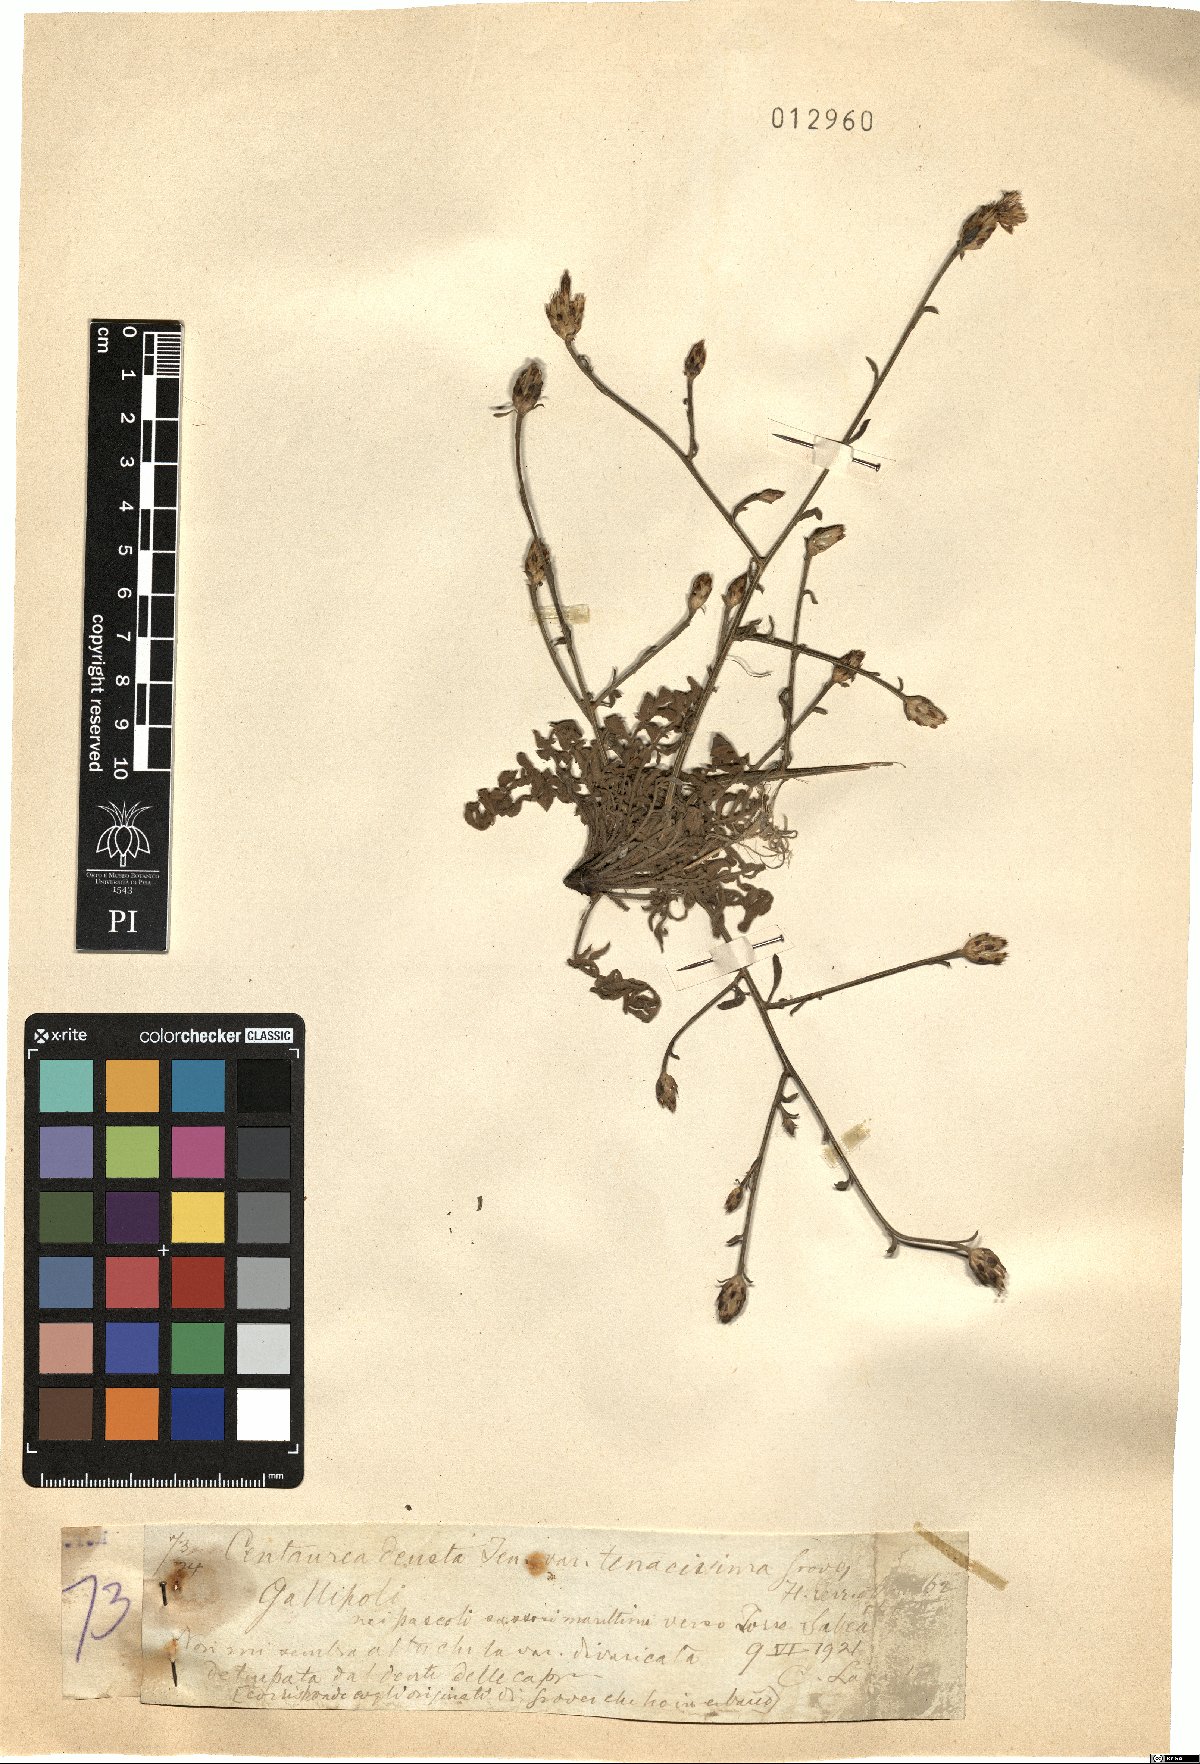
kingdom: Plantae
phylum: Tracheophyta
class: Magnoliopsida
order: Asterales
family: Asteraceae
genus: Centaurea
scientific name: Centaurea tenacissima
